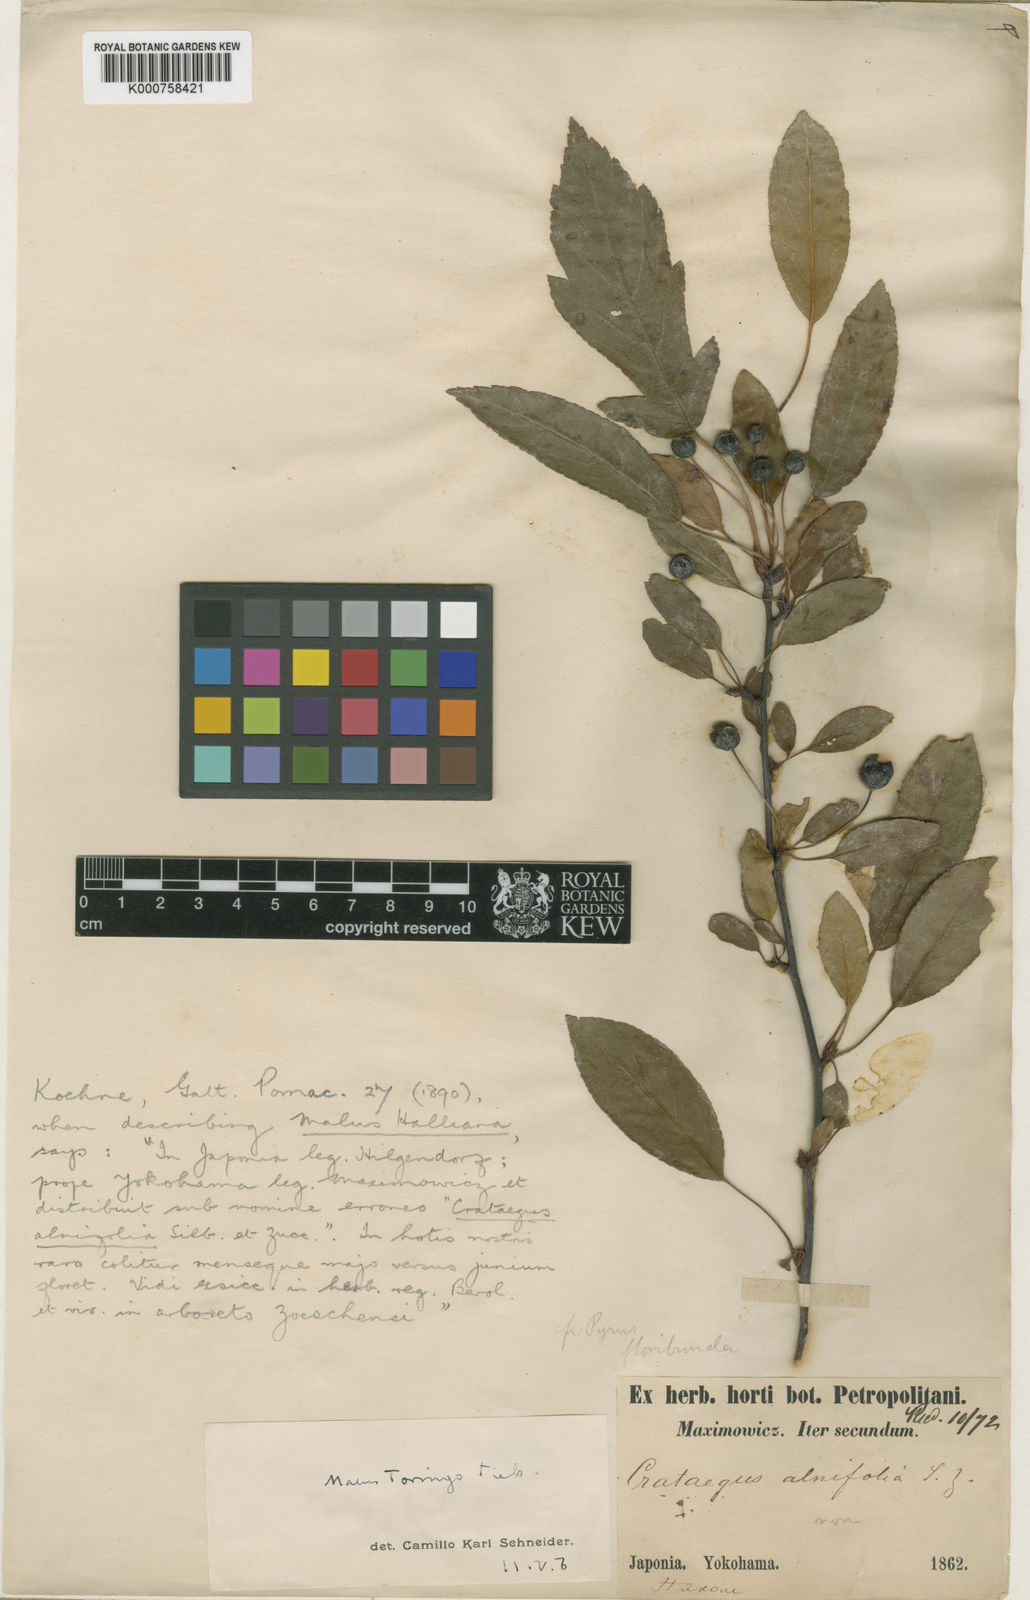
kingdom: Plantae
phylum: Tracheophyta
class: Magnoliopsida
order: Rosales
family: Rosaceae
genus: Malus
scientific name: Malus halliana
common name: Hall crab apple
